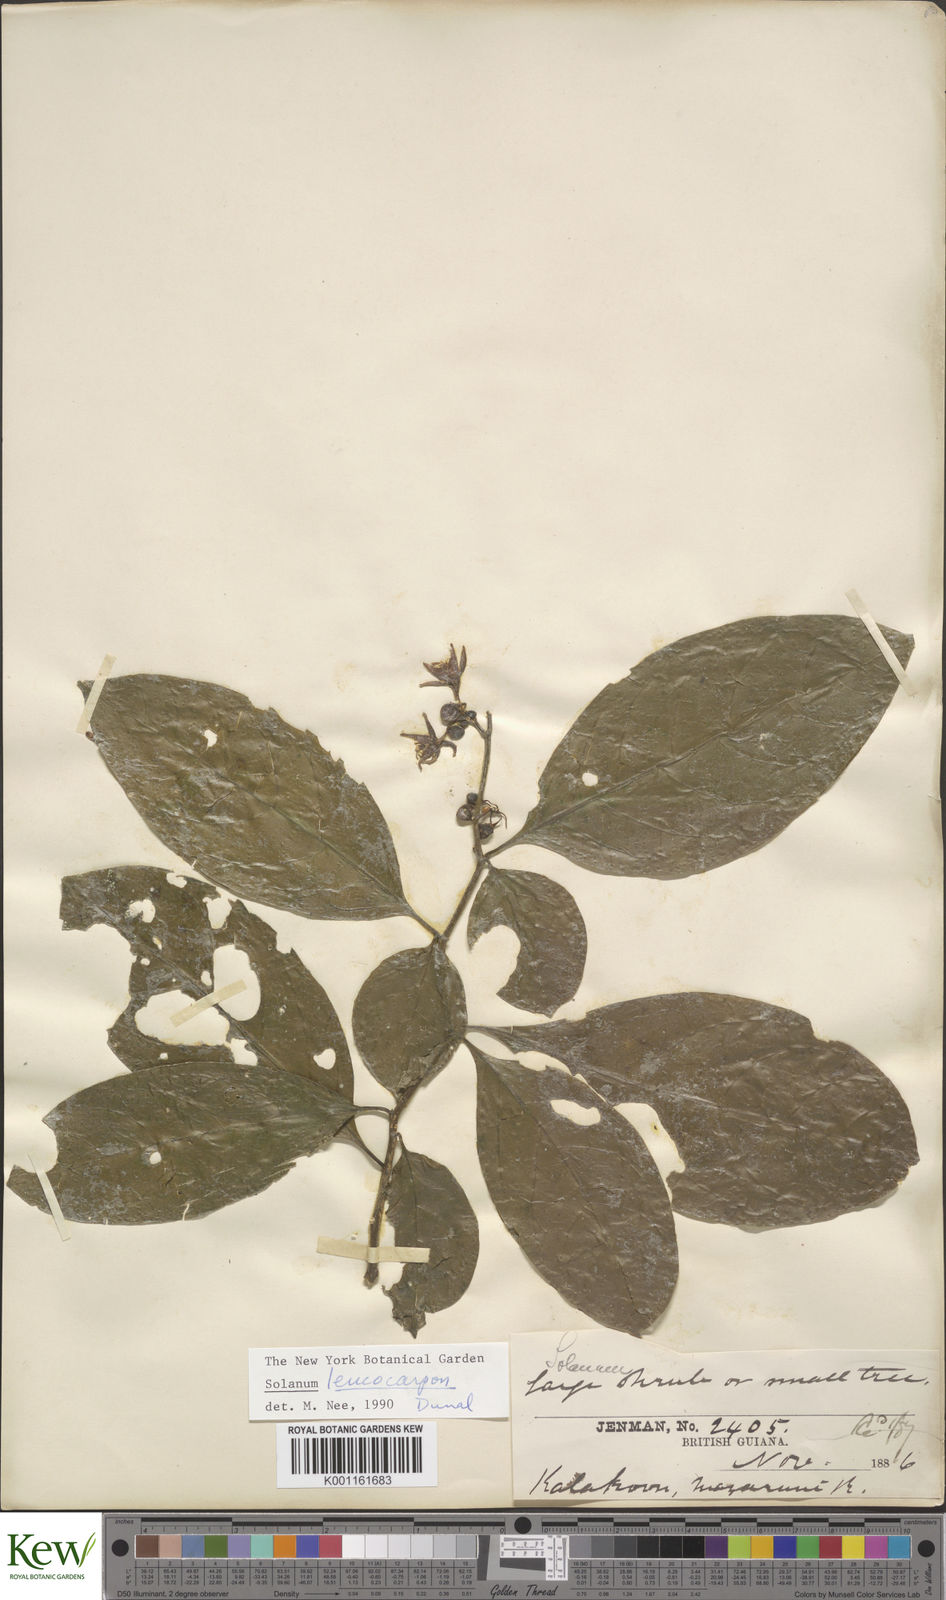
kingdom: Plantae
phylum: Tracheophyta
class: Magnoliopsida
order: Solanales
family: Solanaceae
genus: Solanum
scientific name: Solanum leucocarpon
